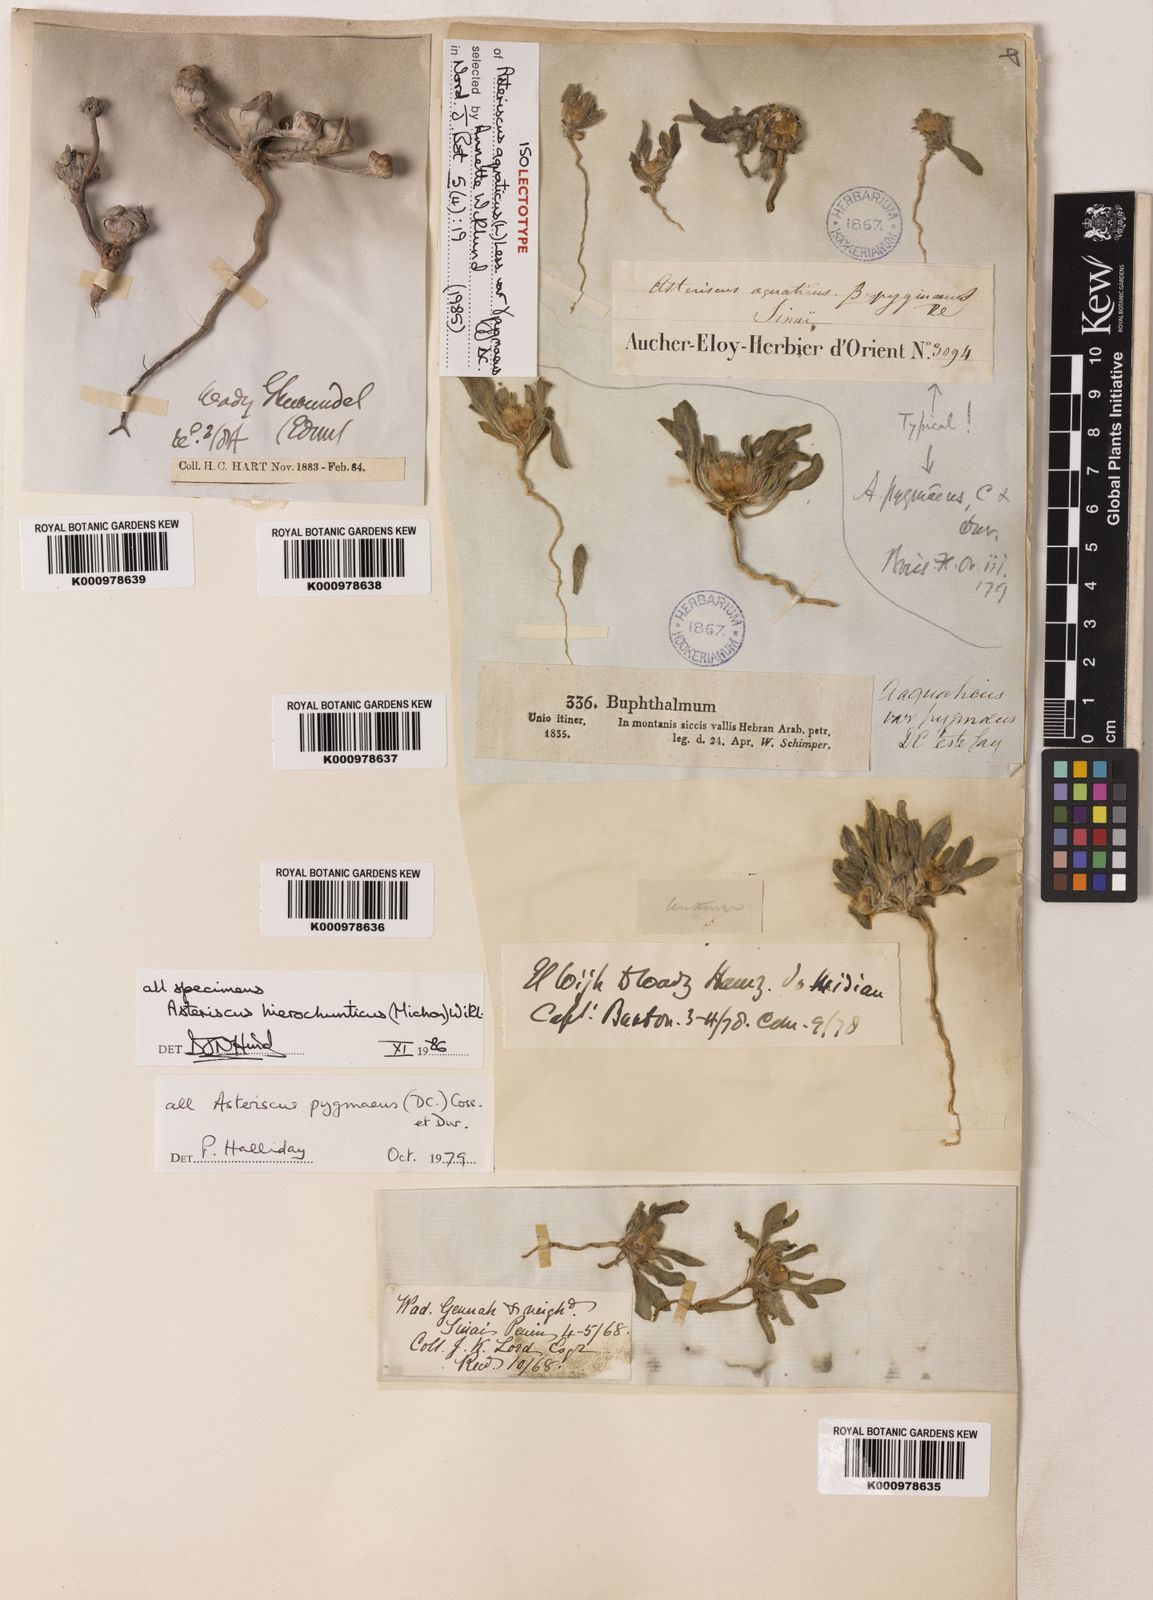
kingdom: Plantae
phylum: Tracheophyta
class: Magnoliopsida
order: Asterales
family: Asteraceae
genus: Pallenis
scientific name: Pallenis hierochuntica
